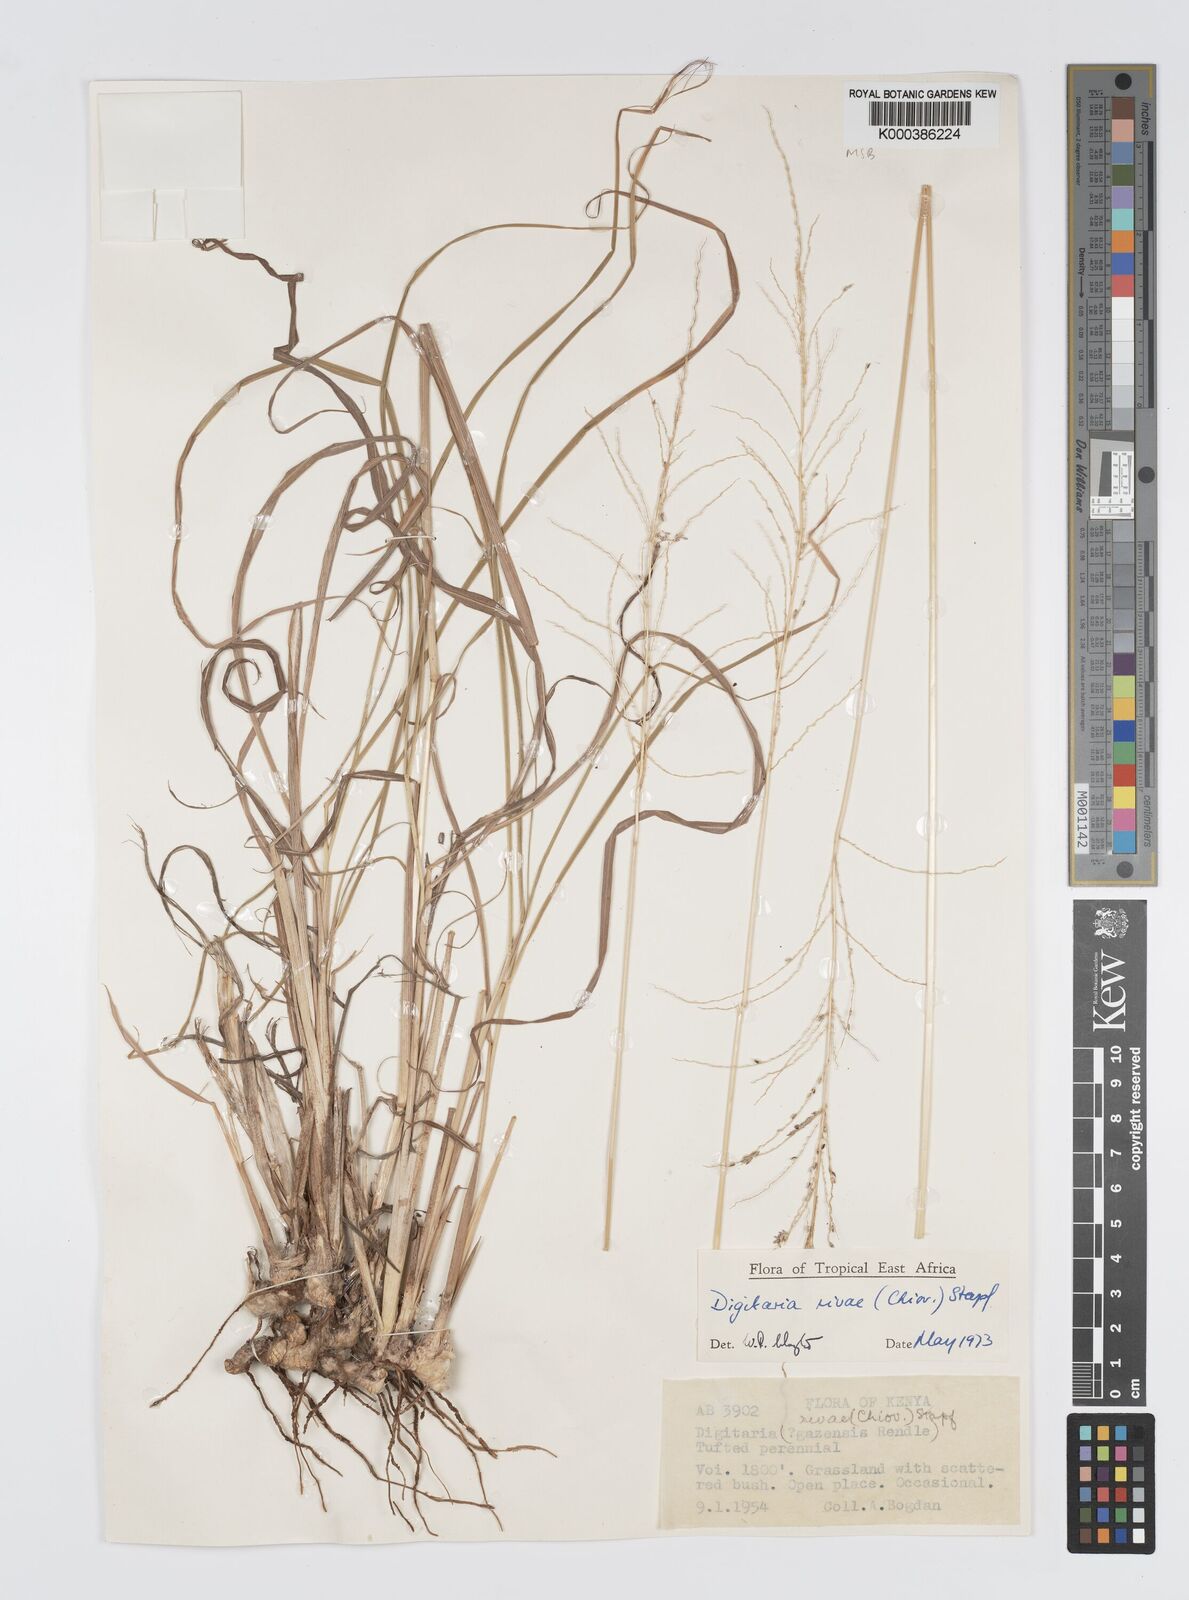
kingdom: Plantae
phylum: Tracheophyta
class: Liliopsida
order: Poales
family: Poaceae
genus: Digitaria
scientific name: Digitaria rivae
